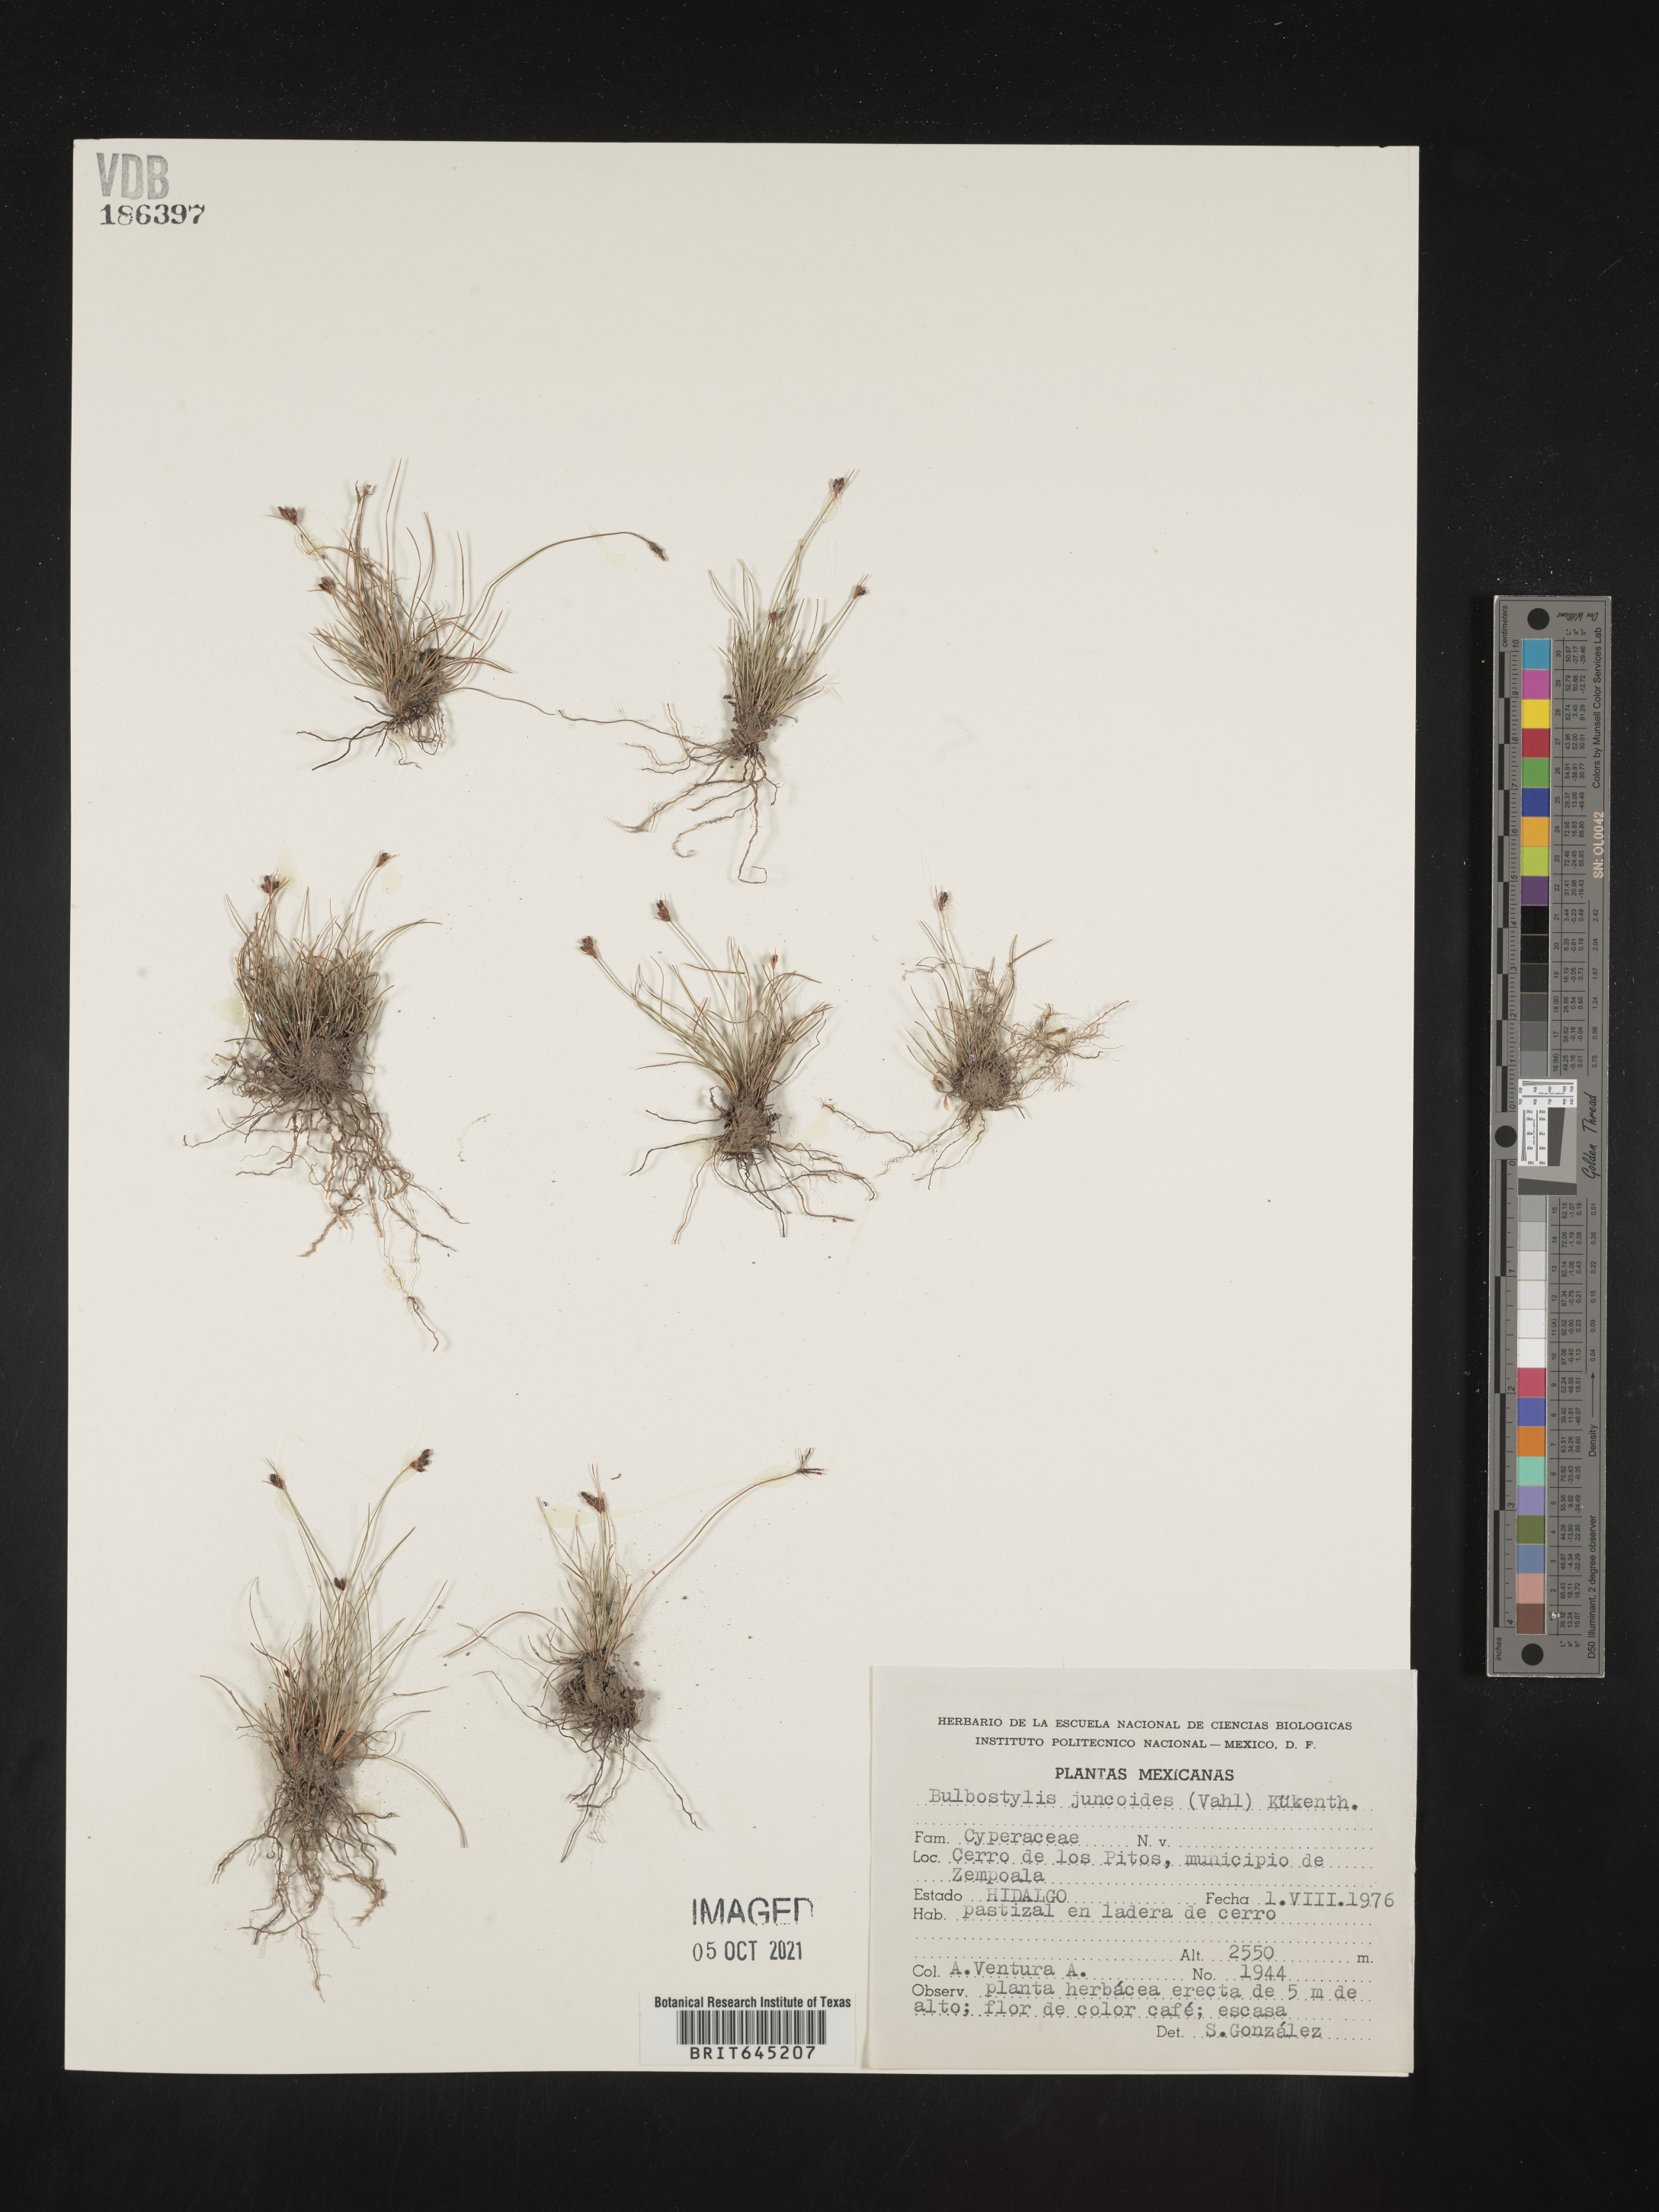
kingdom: Plantae
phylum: Tracheophyta
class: Liliopsida
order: Poales
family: Cyperaceae
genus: Bulbostylis
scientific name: Bulbostylis juncoides
